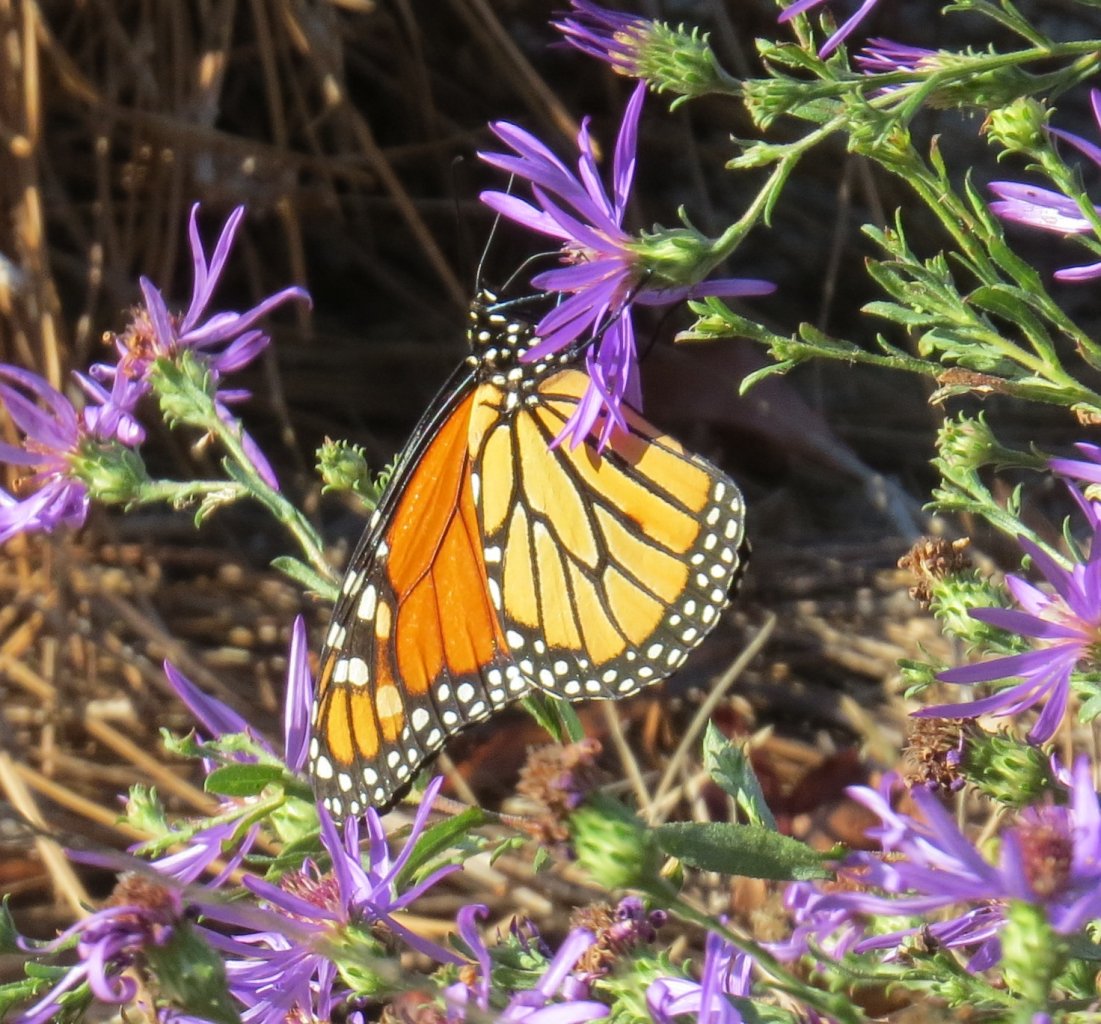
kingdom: Animalia
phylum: Arthropoda
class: Insecta
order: Lepidoptera
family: Nymphalidae
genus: Danaus
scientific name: Danaus plexippus
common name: Monarch
